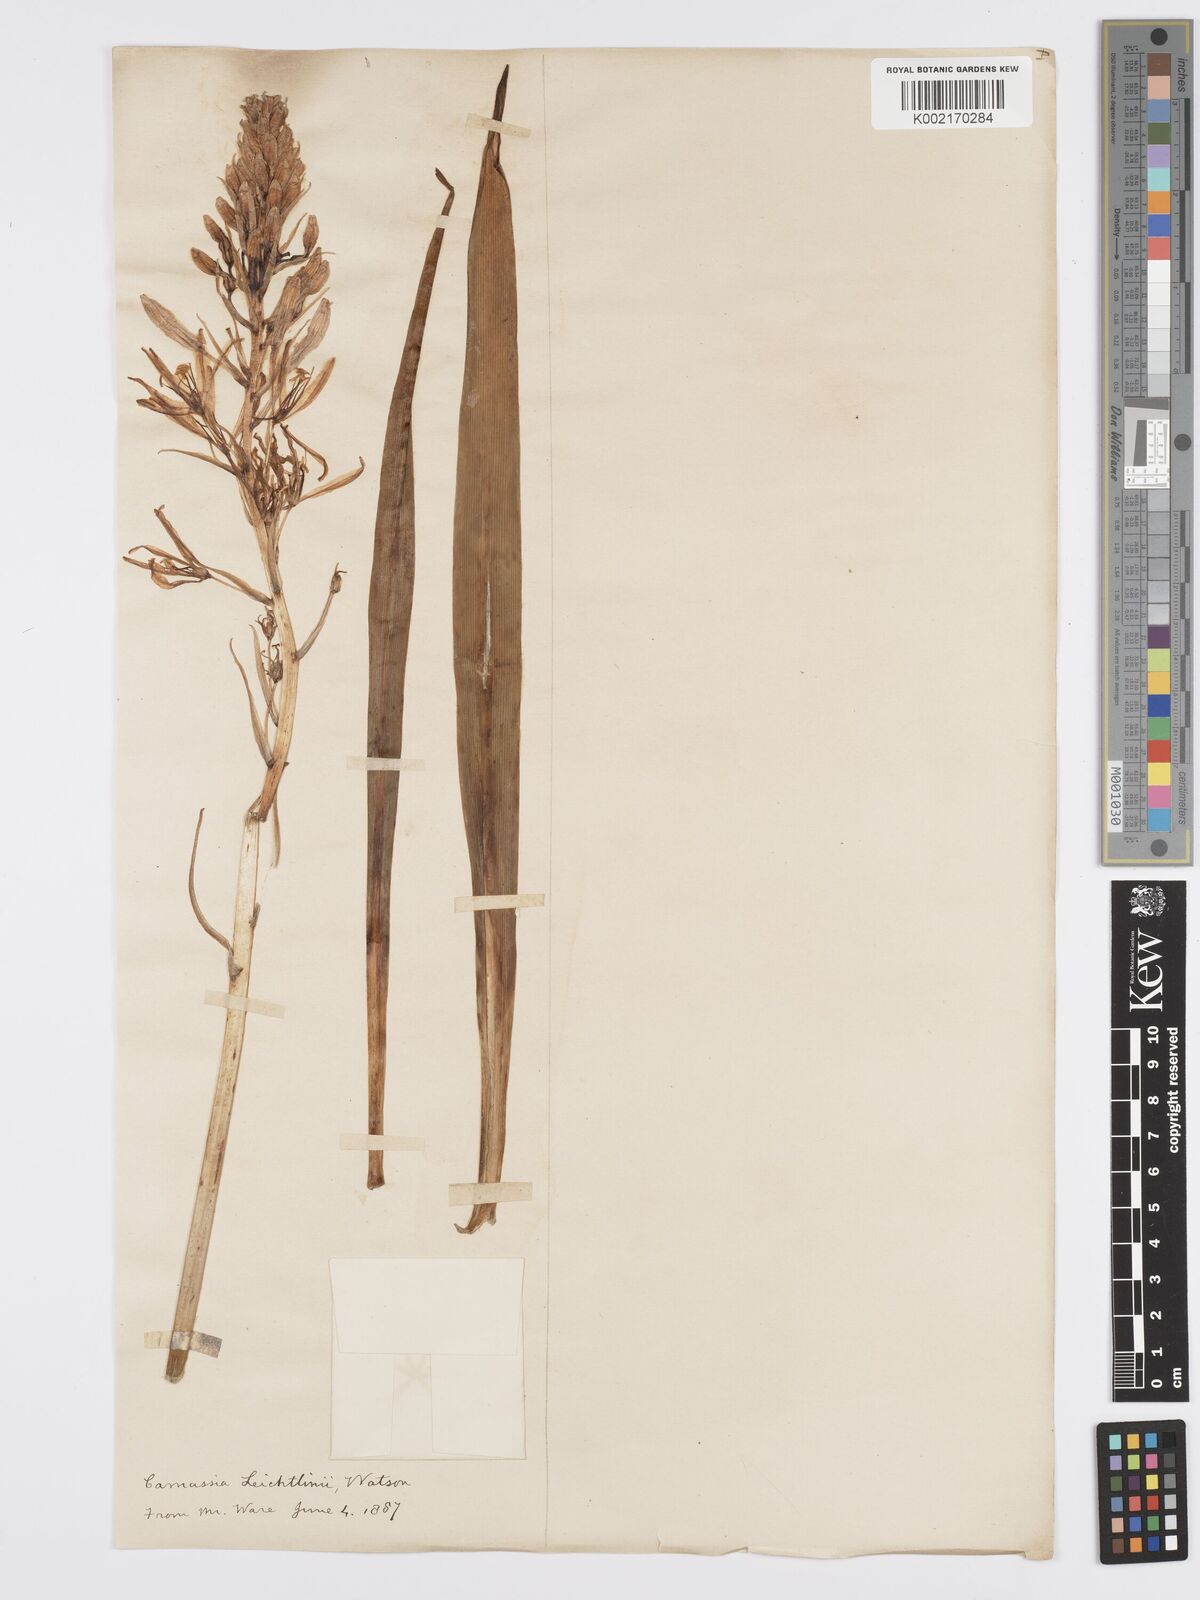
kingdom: Plantae
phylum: Tracheophyta
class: Liliopsida
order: Asparagales
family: Asparagaceae
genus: Camassia
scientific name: Camassia leichtlinii
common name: Leichtlin's camas
